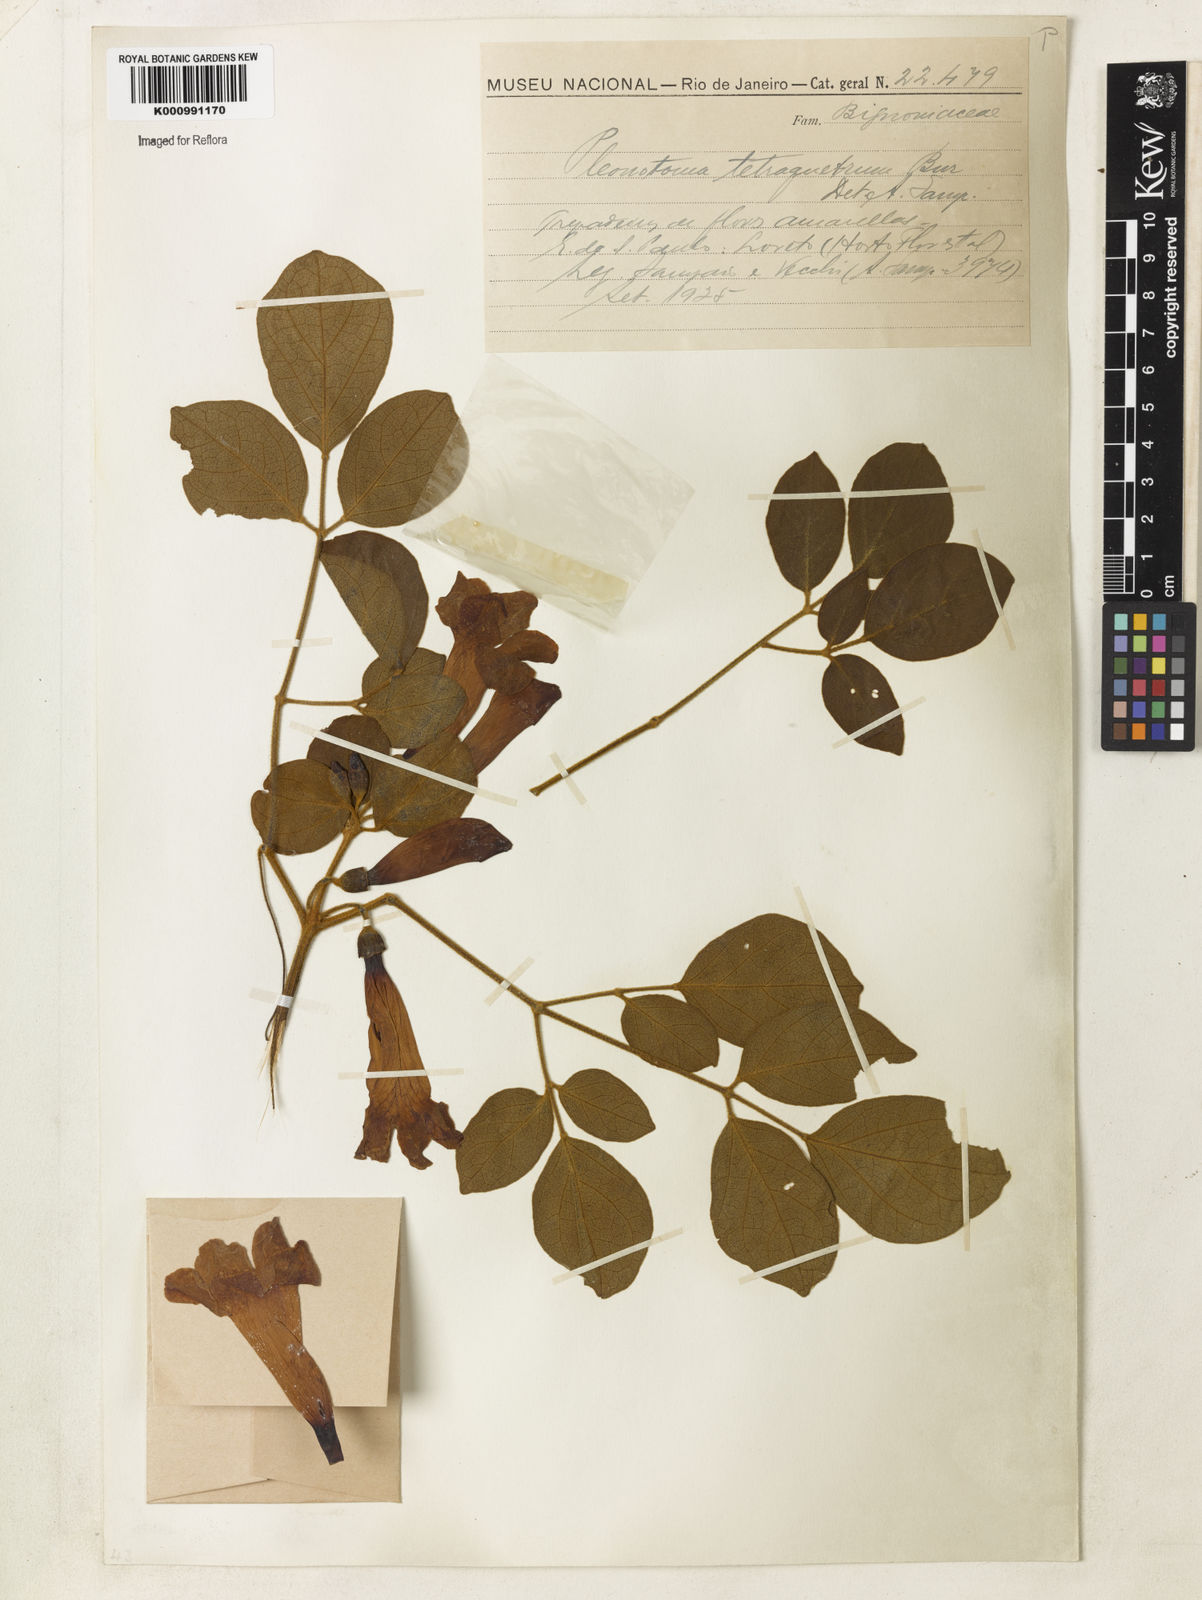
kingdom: Plantae
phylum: Tracheophyta
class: Magnoliopsida
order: Lamiales
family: Bignoniaceae
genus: Pleonotoma
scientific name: Pleonotoma tetraquetra
